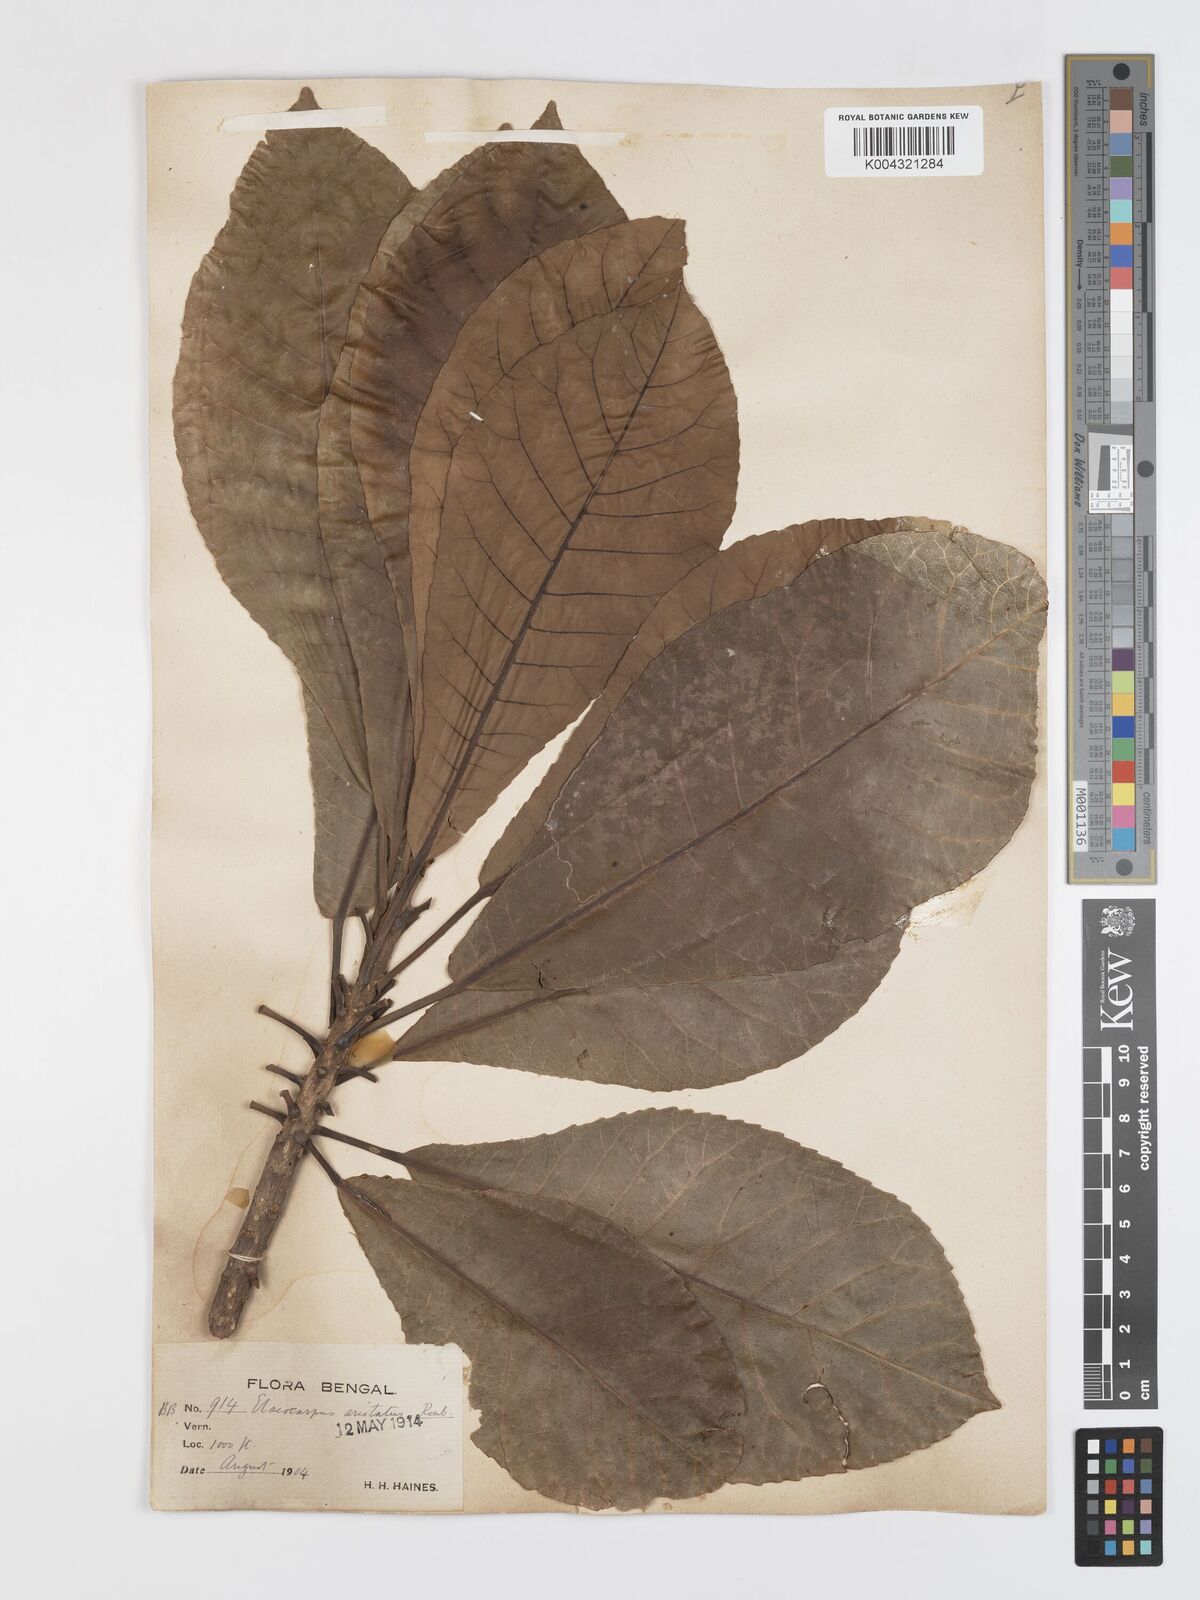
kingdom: Plantae
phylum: Tracheophyta
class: Magnoliopsida
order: Oxalidales
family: Elaeocarpaceae
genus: Elaeocarpus
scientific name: Elaeocarpus aristatus
